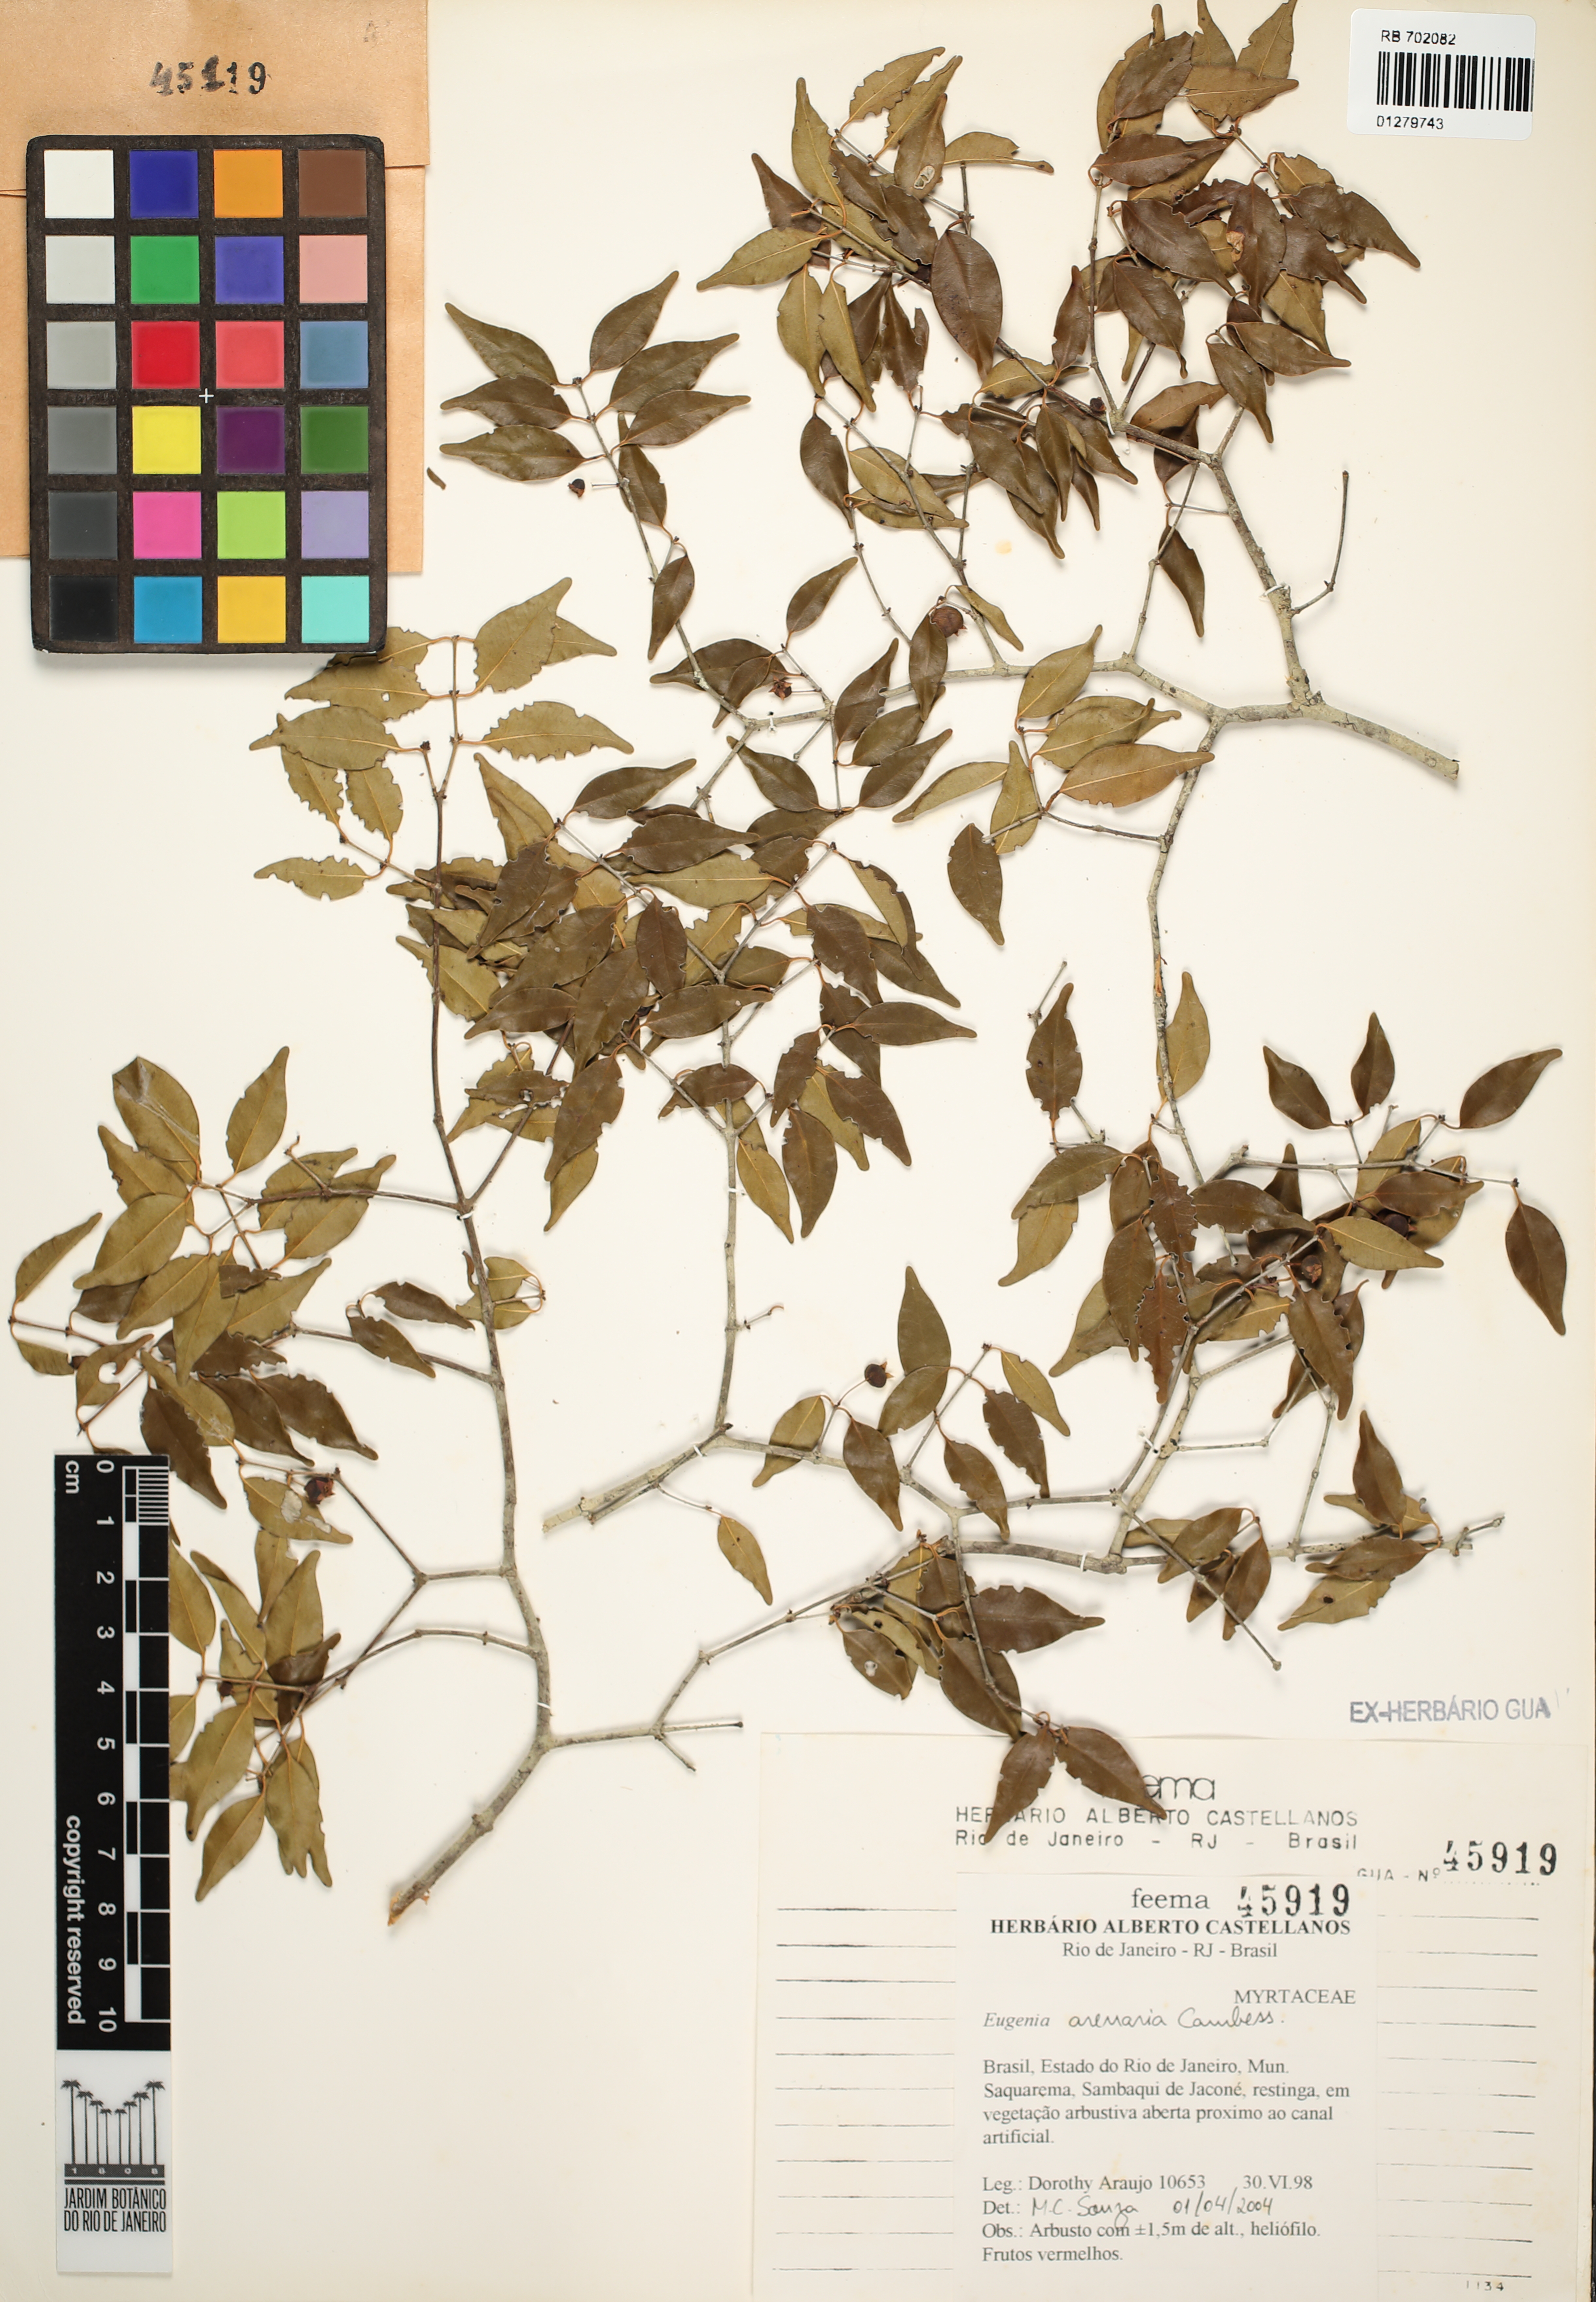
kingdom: Plantae
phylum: Tracheophyta
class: Magnoliopsida
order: Myrtales
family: Myrtaceae
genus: Eugenia
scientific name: Eugenia arenaria
